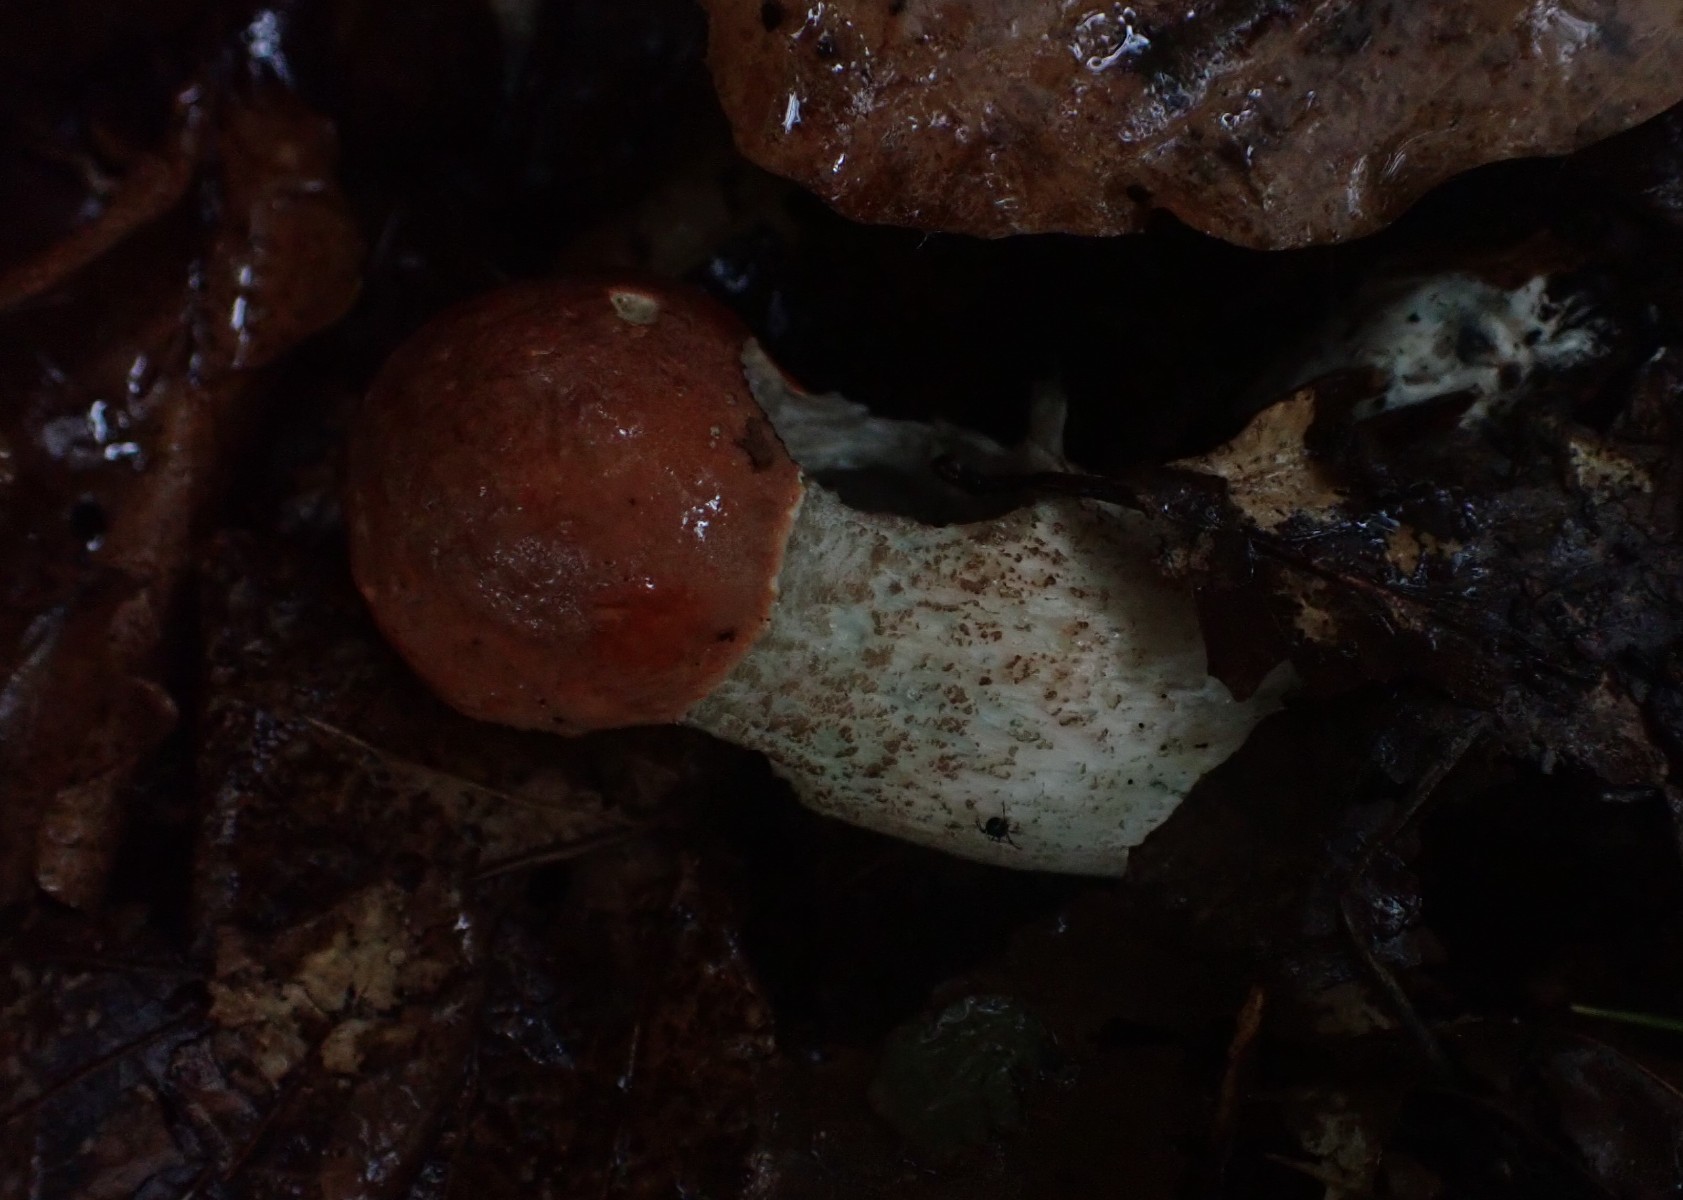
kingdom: Fungi
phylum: Basidiomycota
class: Agaricomycetes
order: Boletales
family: Boletaceae
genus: Leccinum
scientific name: Leccinum aurantiacum
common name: rustrød skælrørhat
